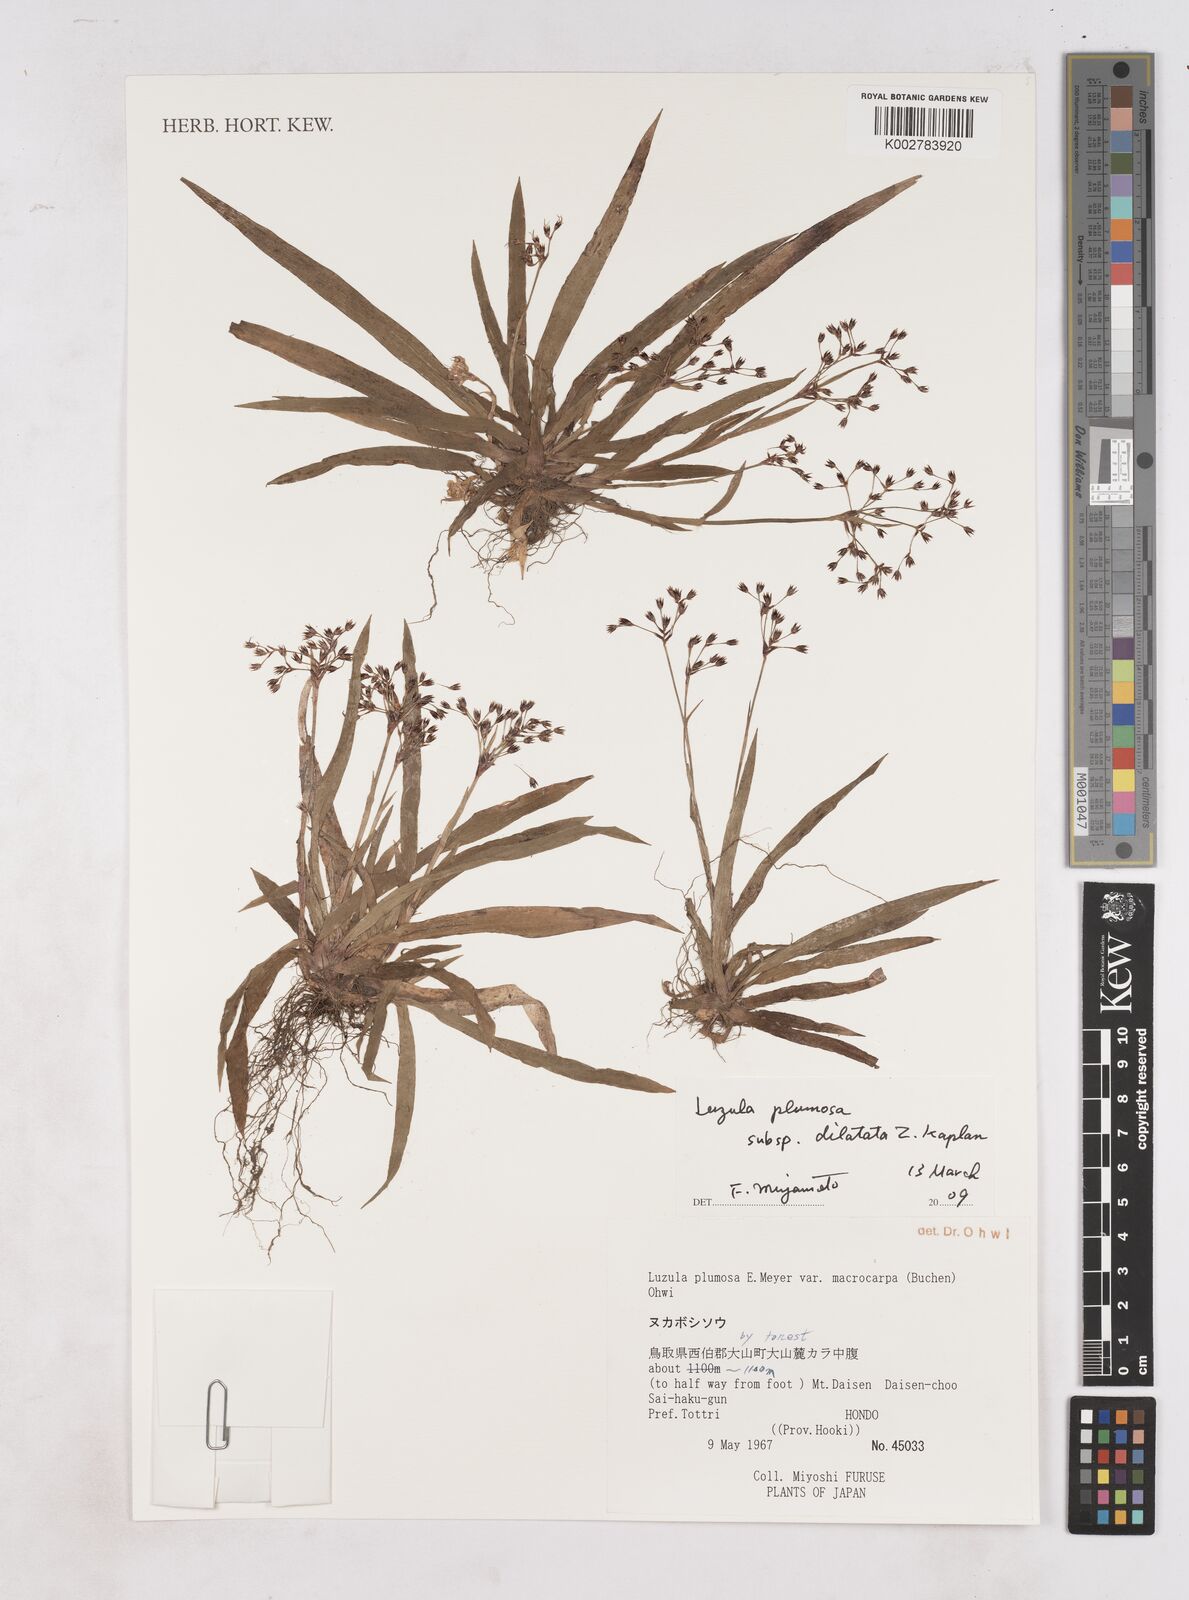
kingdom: Plantae
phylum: Tracheophyta
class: Liliopsida
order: Poales
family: Juncaceae
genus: Luzula
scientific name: Luzula plumosa
